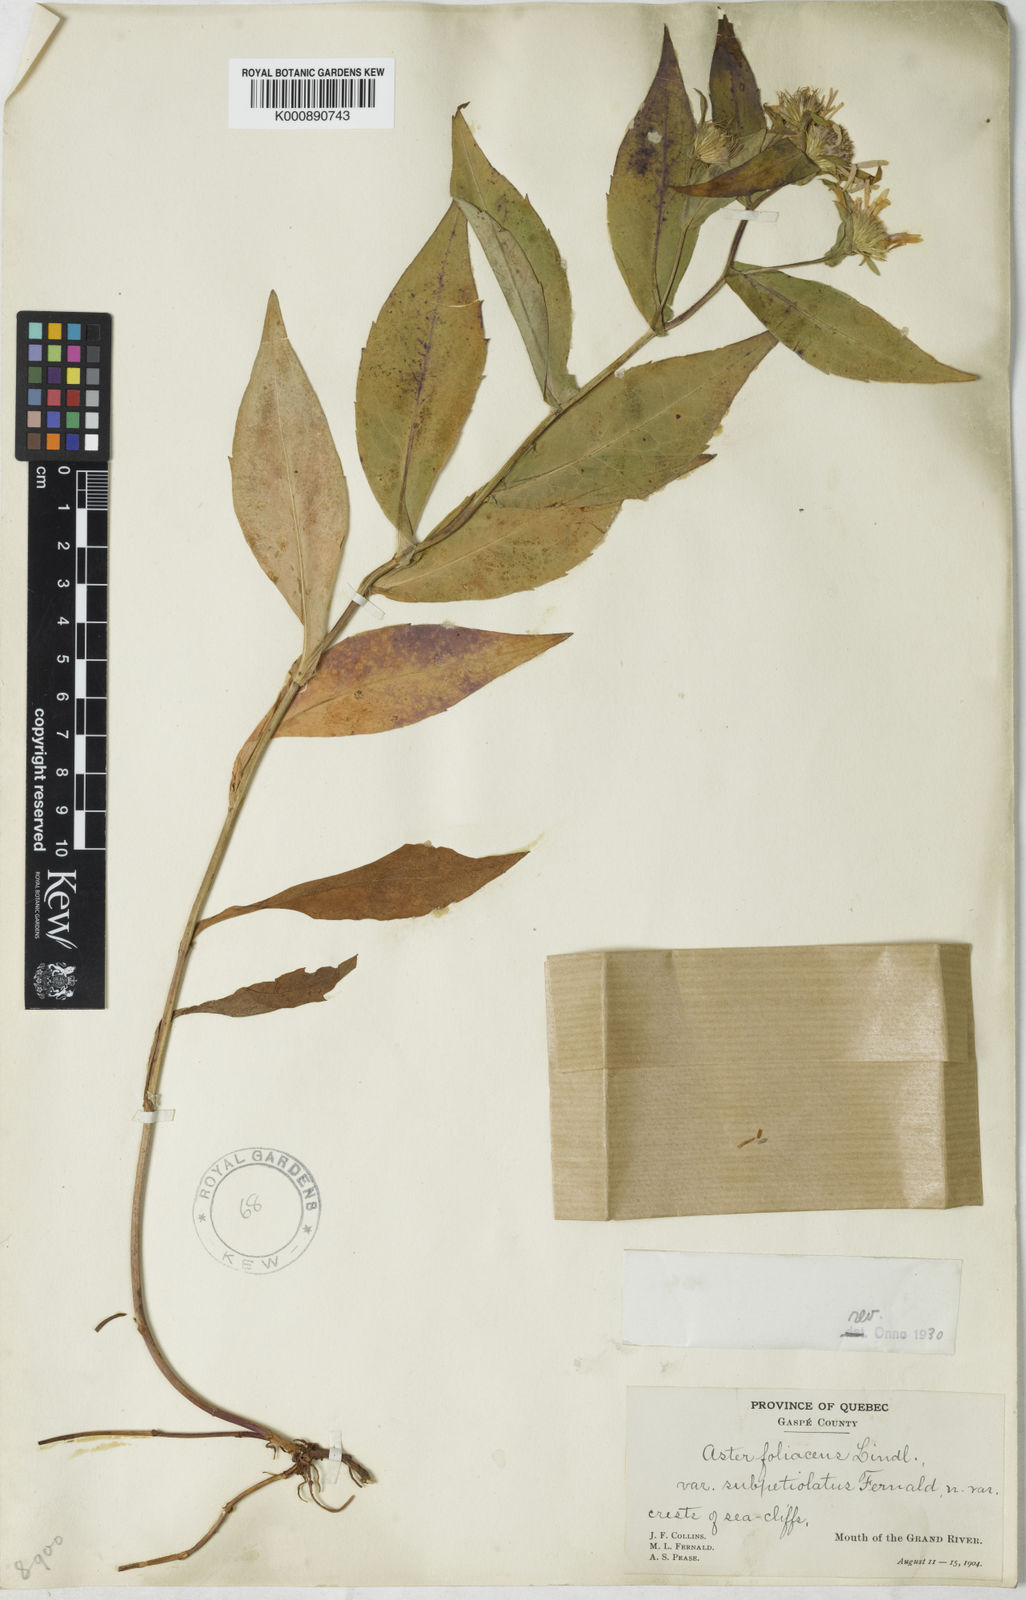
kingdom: Plantae
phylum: Tracheophyta
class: Magnoliopsida
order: Asterales
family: Asteraceae
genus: Symphyotrichum
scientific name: Symphyotrichum novi-belgii
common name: Michaelmas daisy
